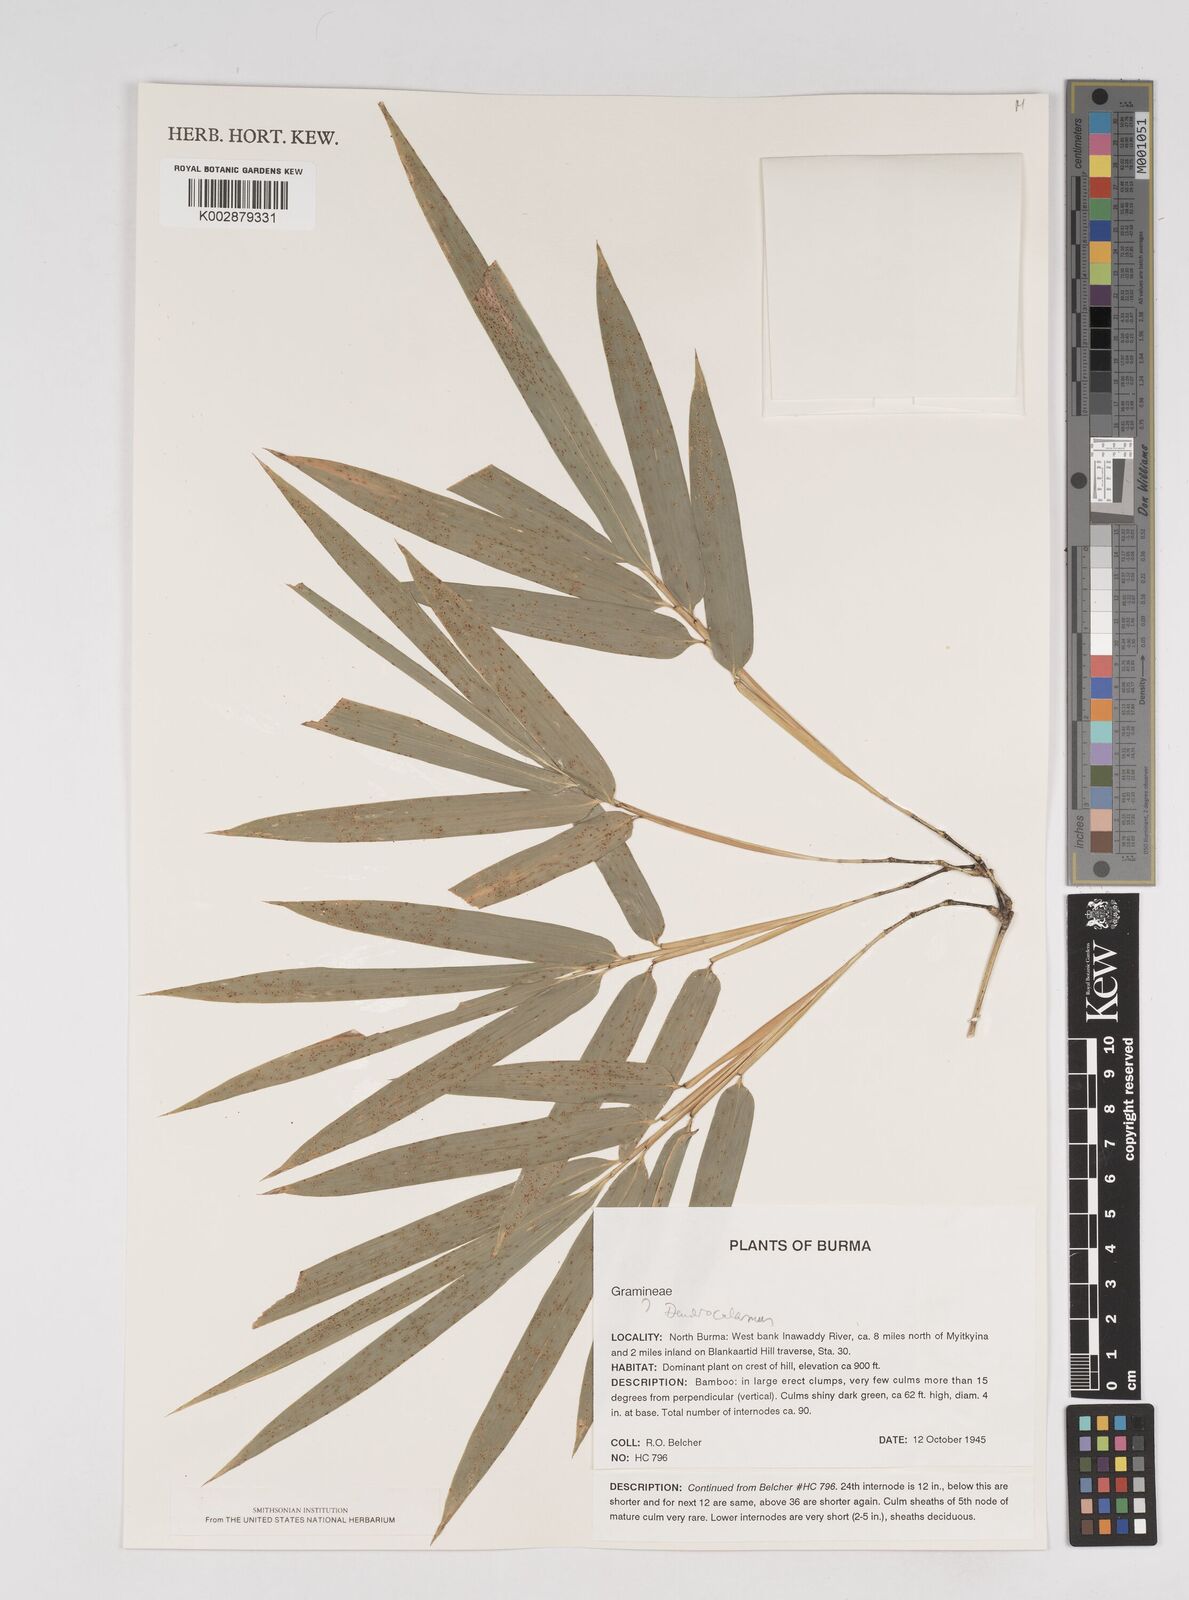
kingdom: Plantae
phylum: Tracheophyta
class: Liliopsida
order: Poales
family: Poaceae
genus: Dendrocalamus
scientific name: Dendrocalamus
